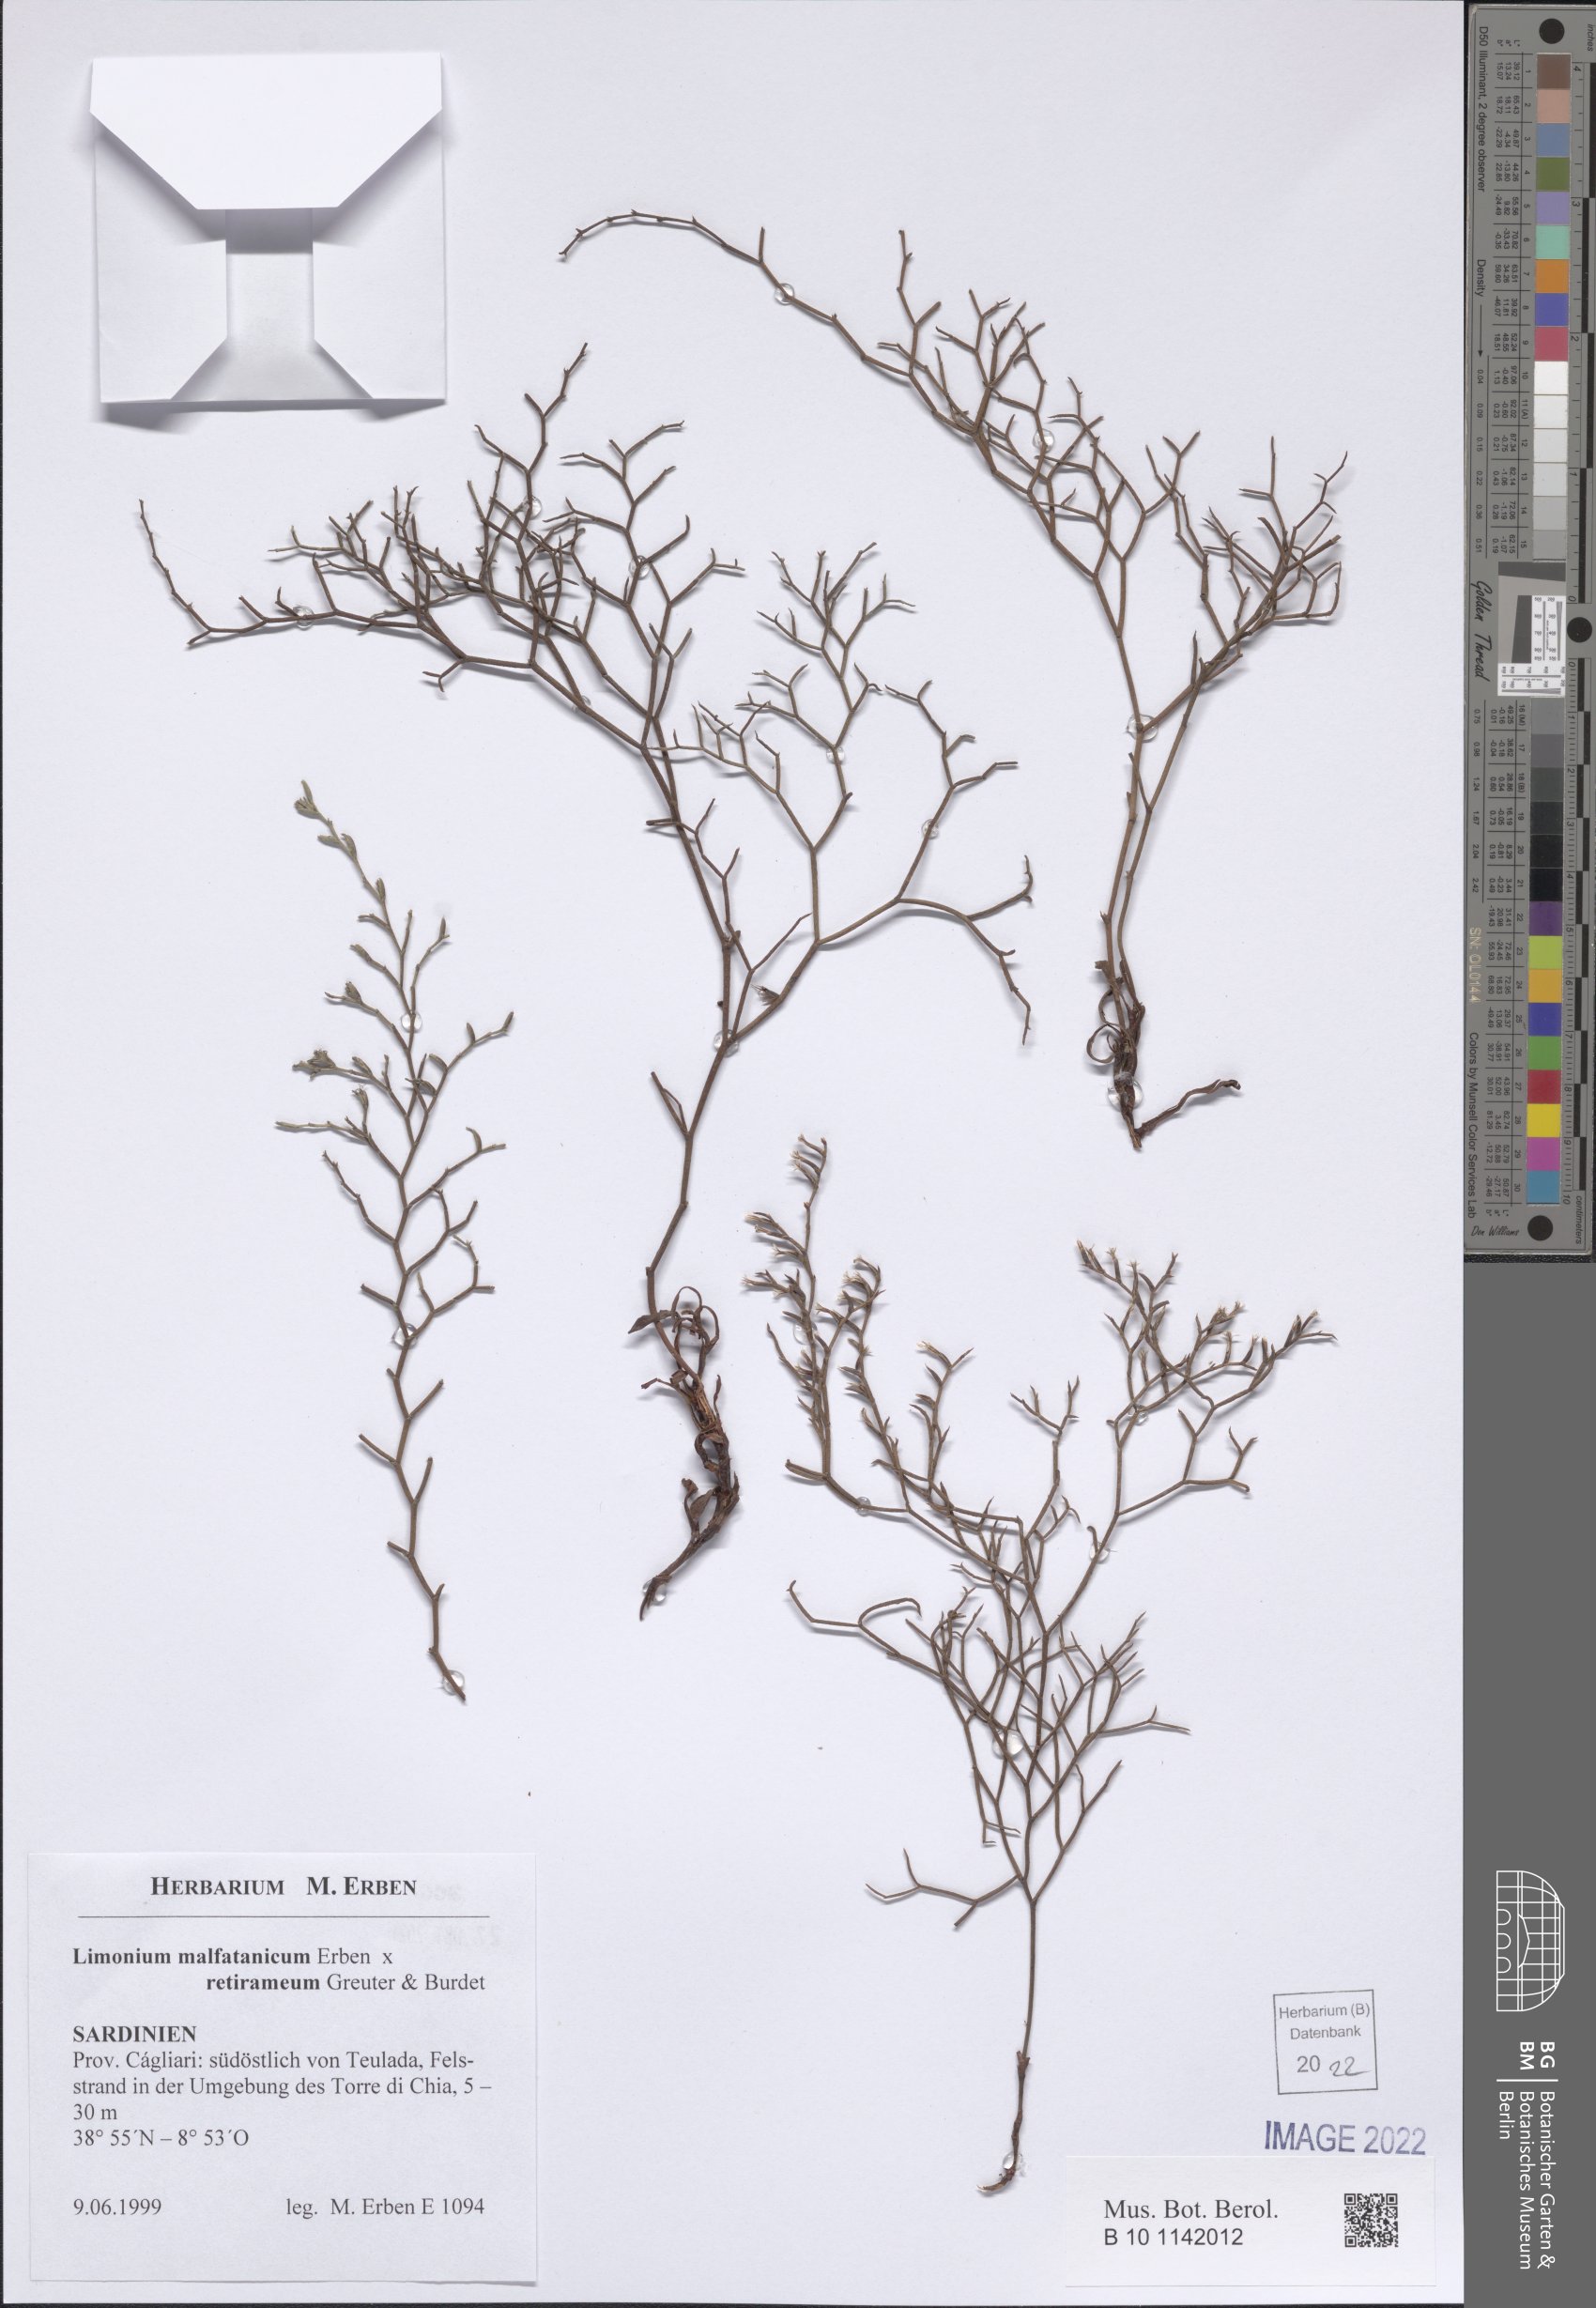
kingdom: Plantae
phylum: Tracheophyta
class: Magnoliopsida
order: Caryophyllales
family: Plumbaginaceae
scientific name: Plumbaginaceae
